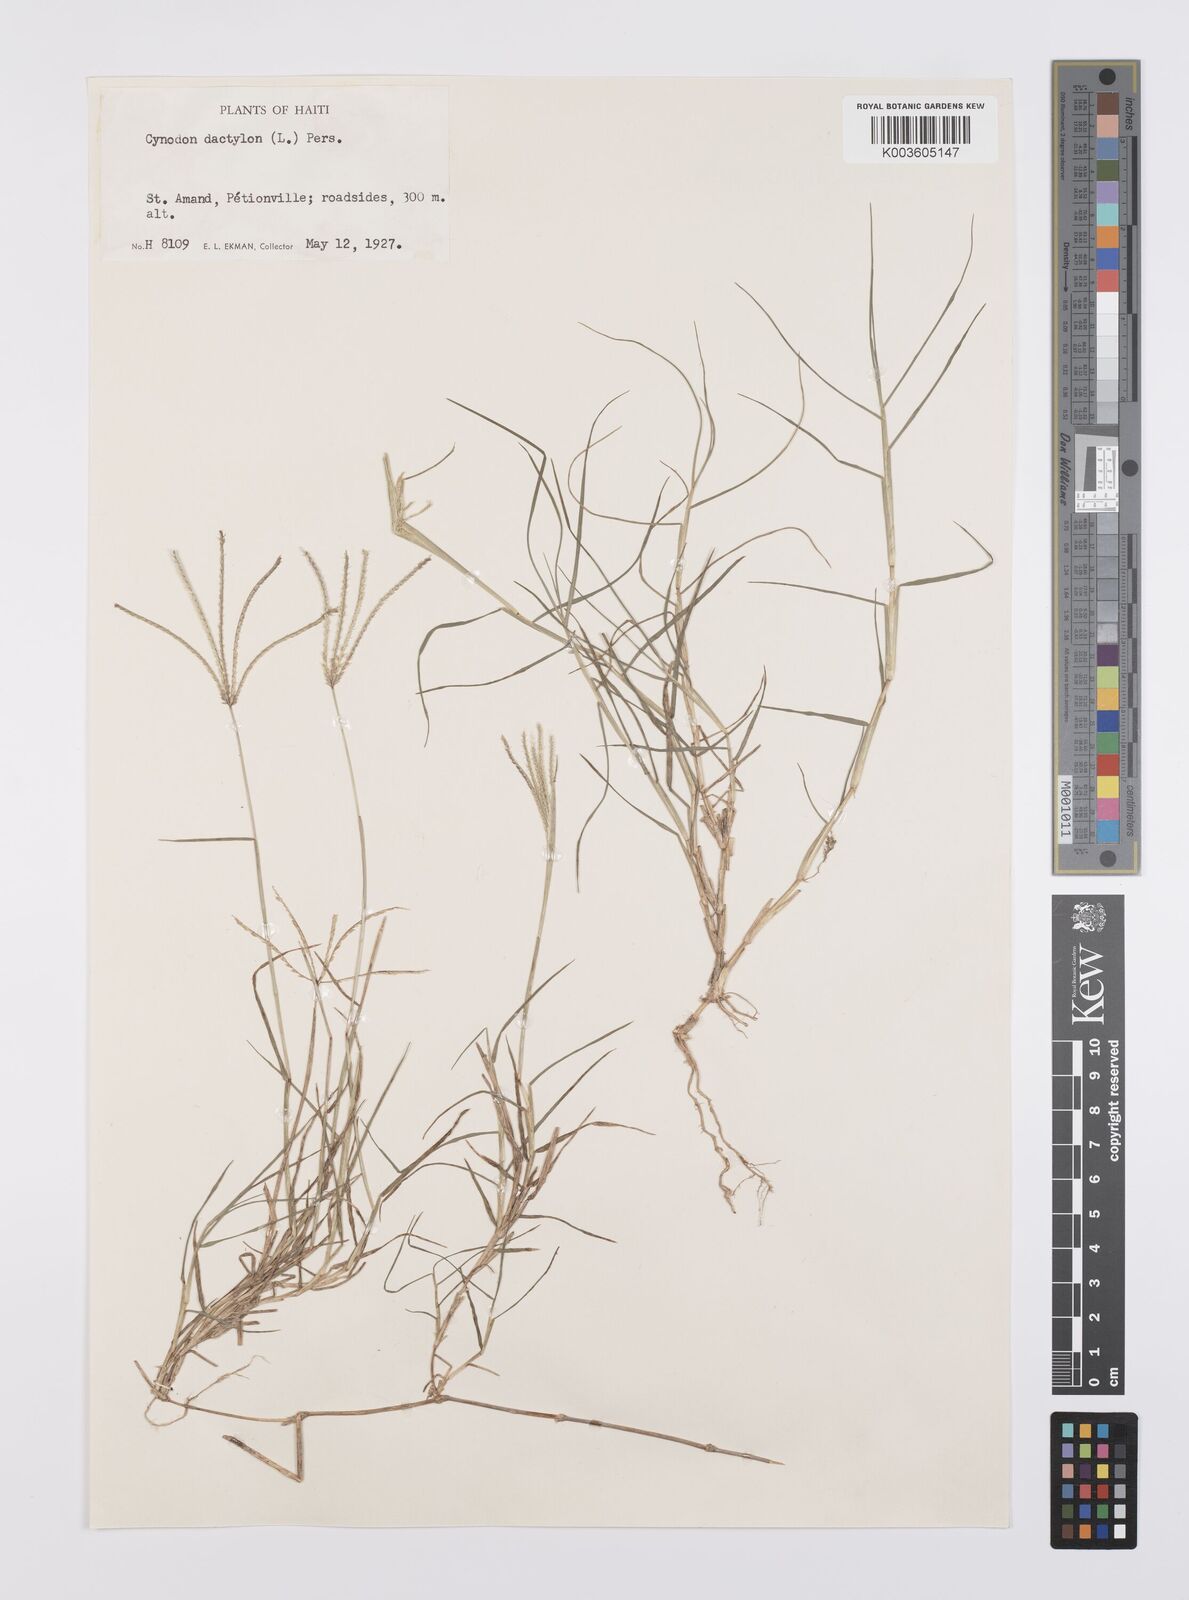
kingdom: Plantae
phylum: Tracheophyta
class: Liliopsida
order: Poales
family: Poaceae
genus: Cynodon
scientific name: Cynodon dactylon
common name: Bermuda grass
